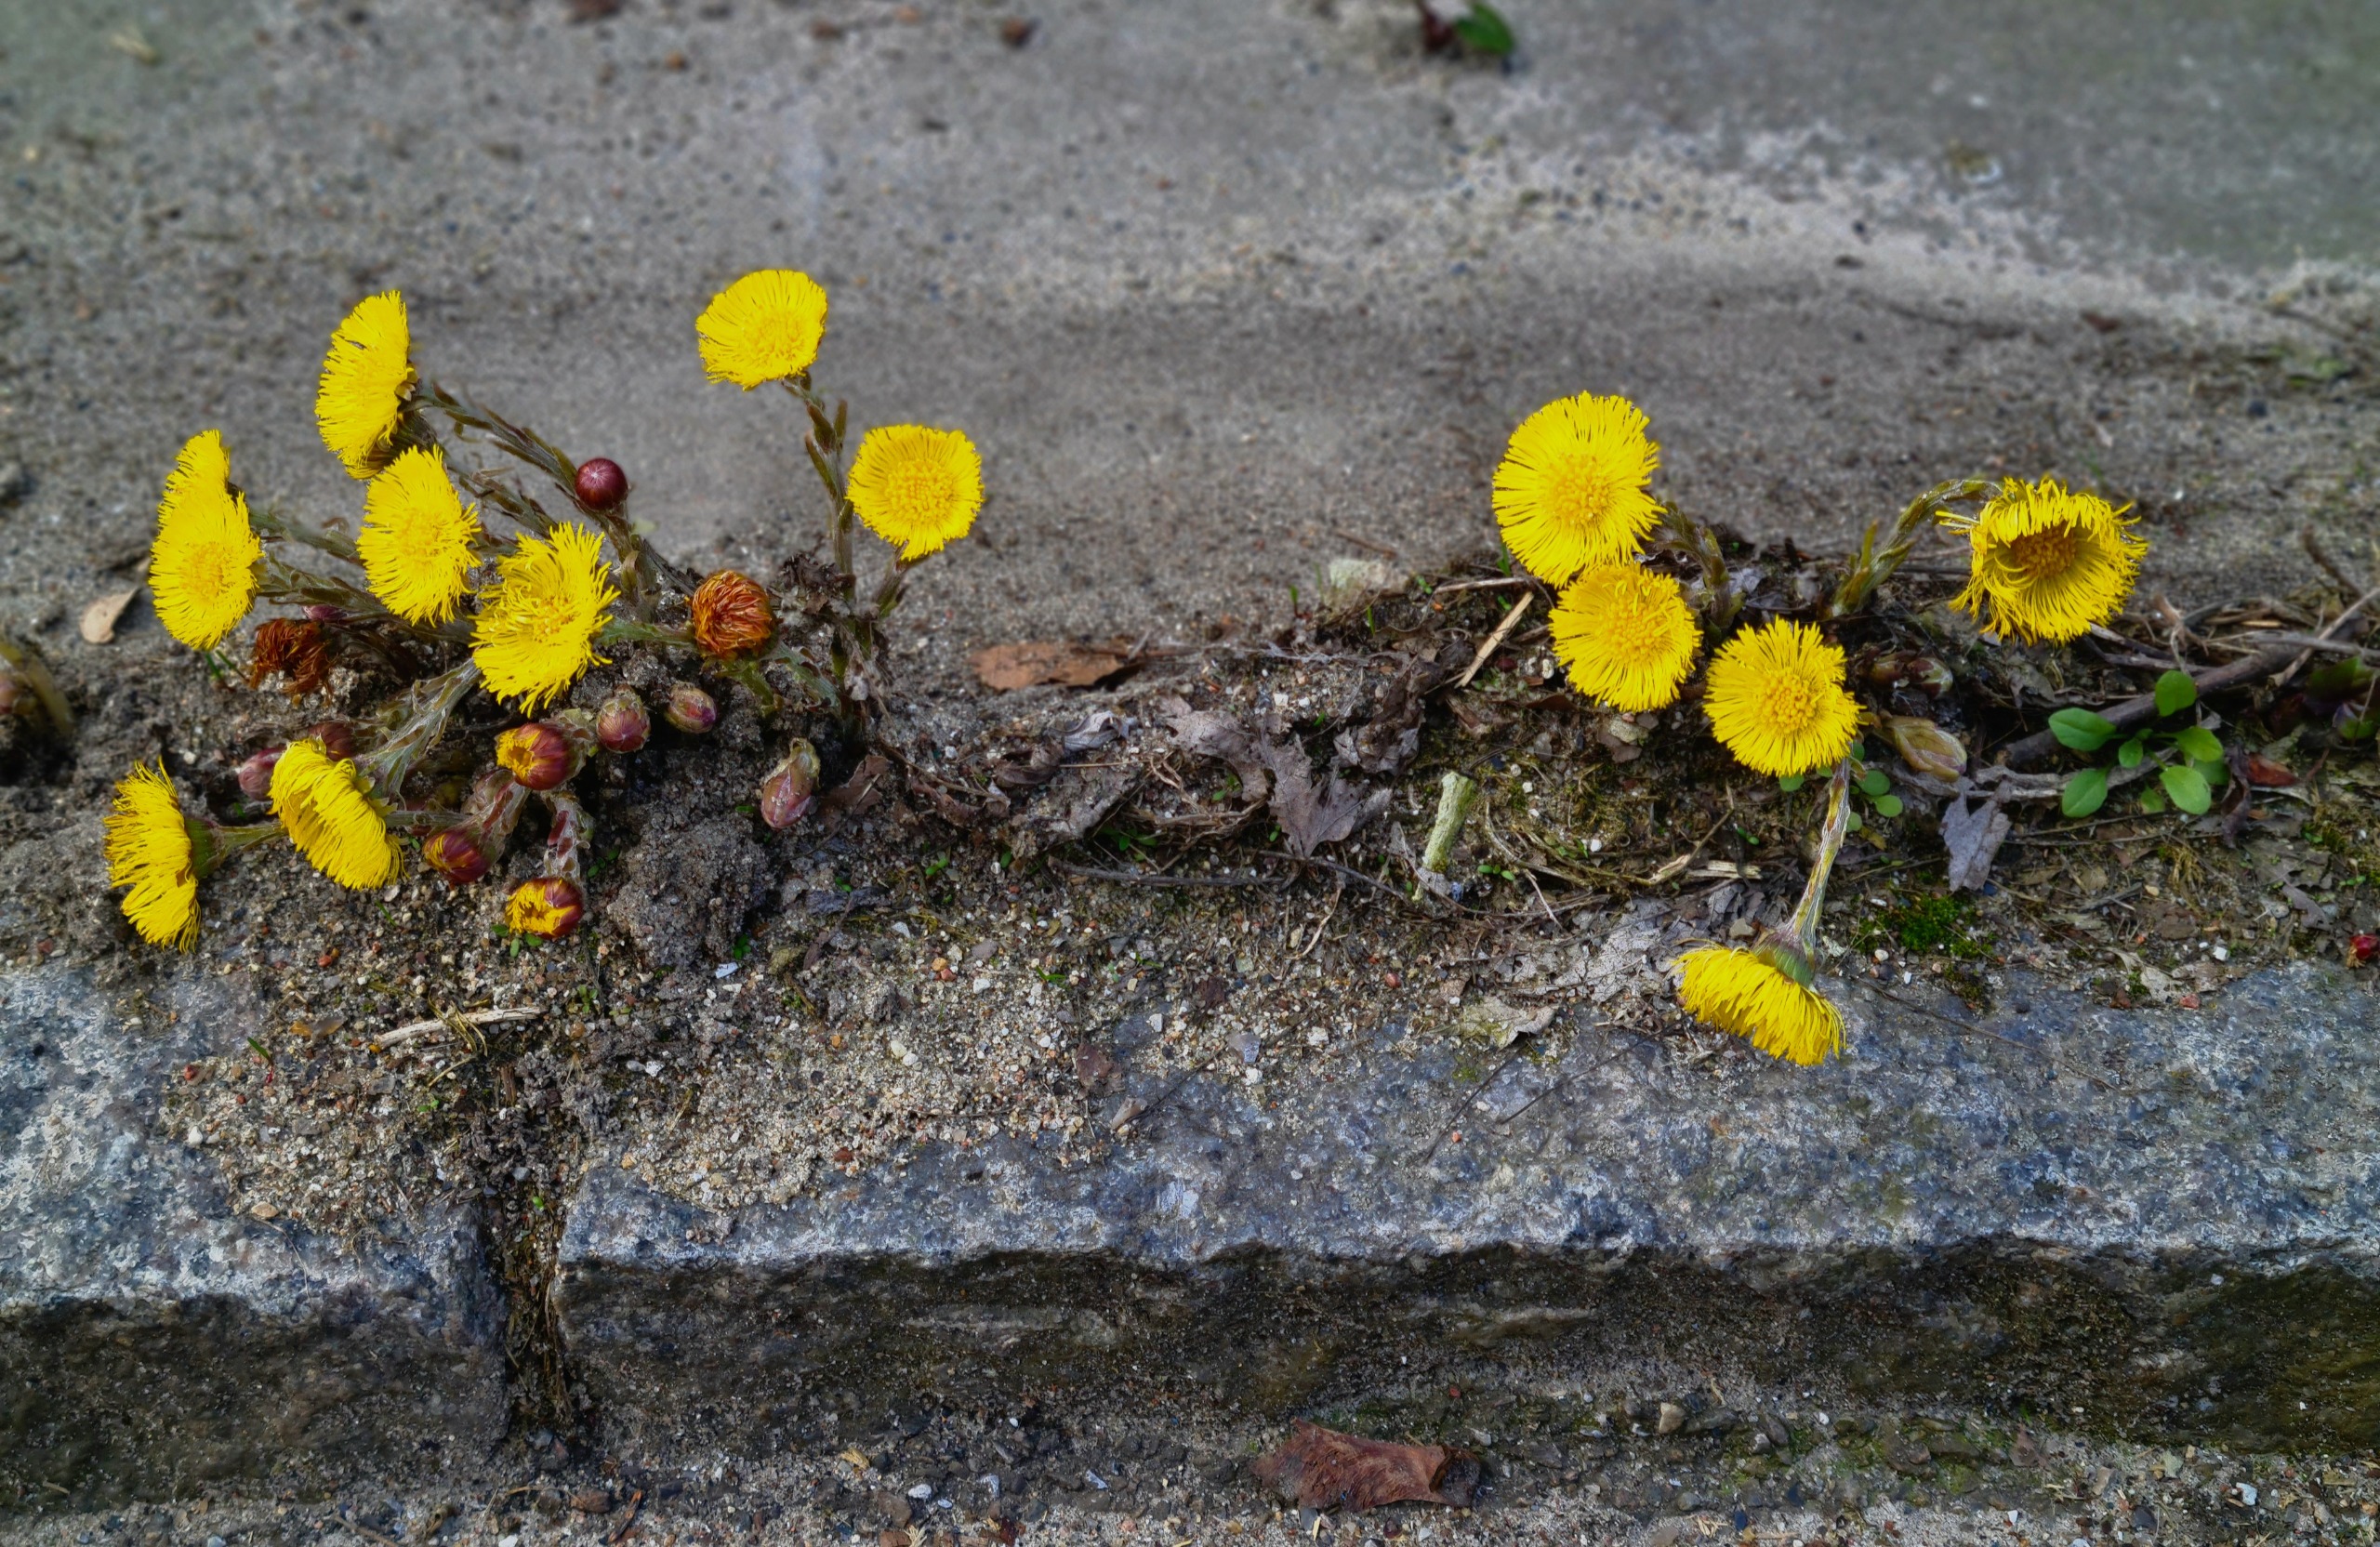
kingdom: Plantae
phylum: Tracheophyta
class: Magnoliopsida
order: Asterales
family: Asteraceae
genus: Tussilago
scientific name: Tussilago farfara
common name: Følfod
